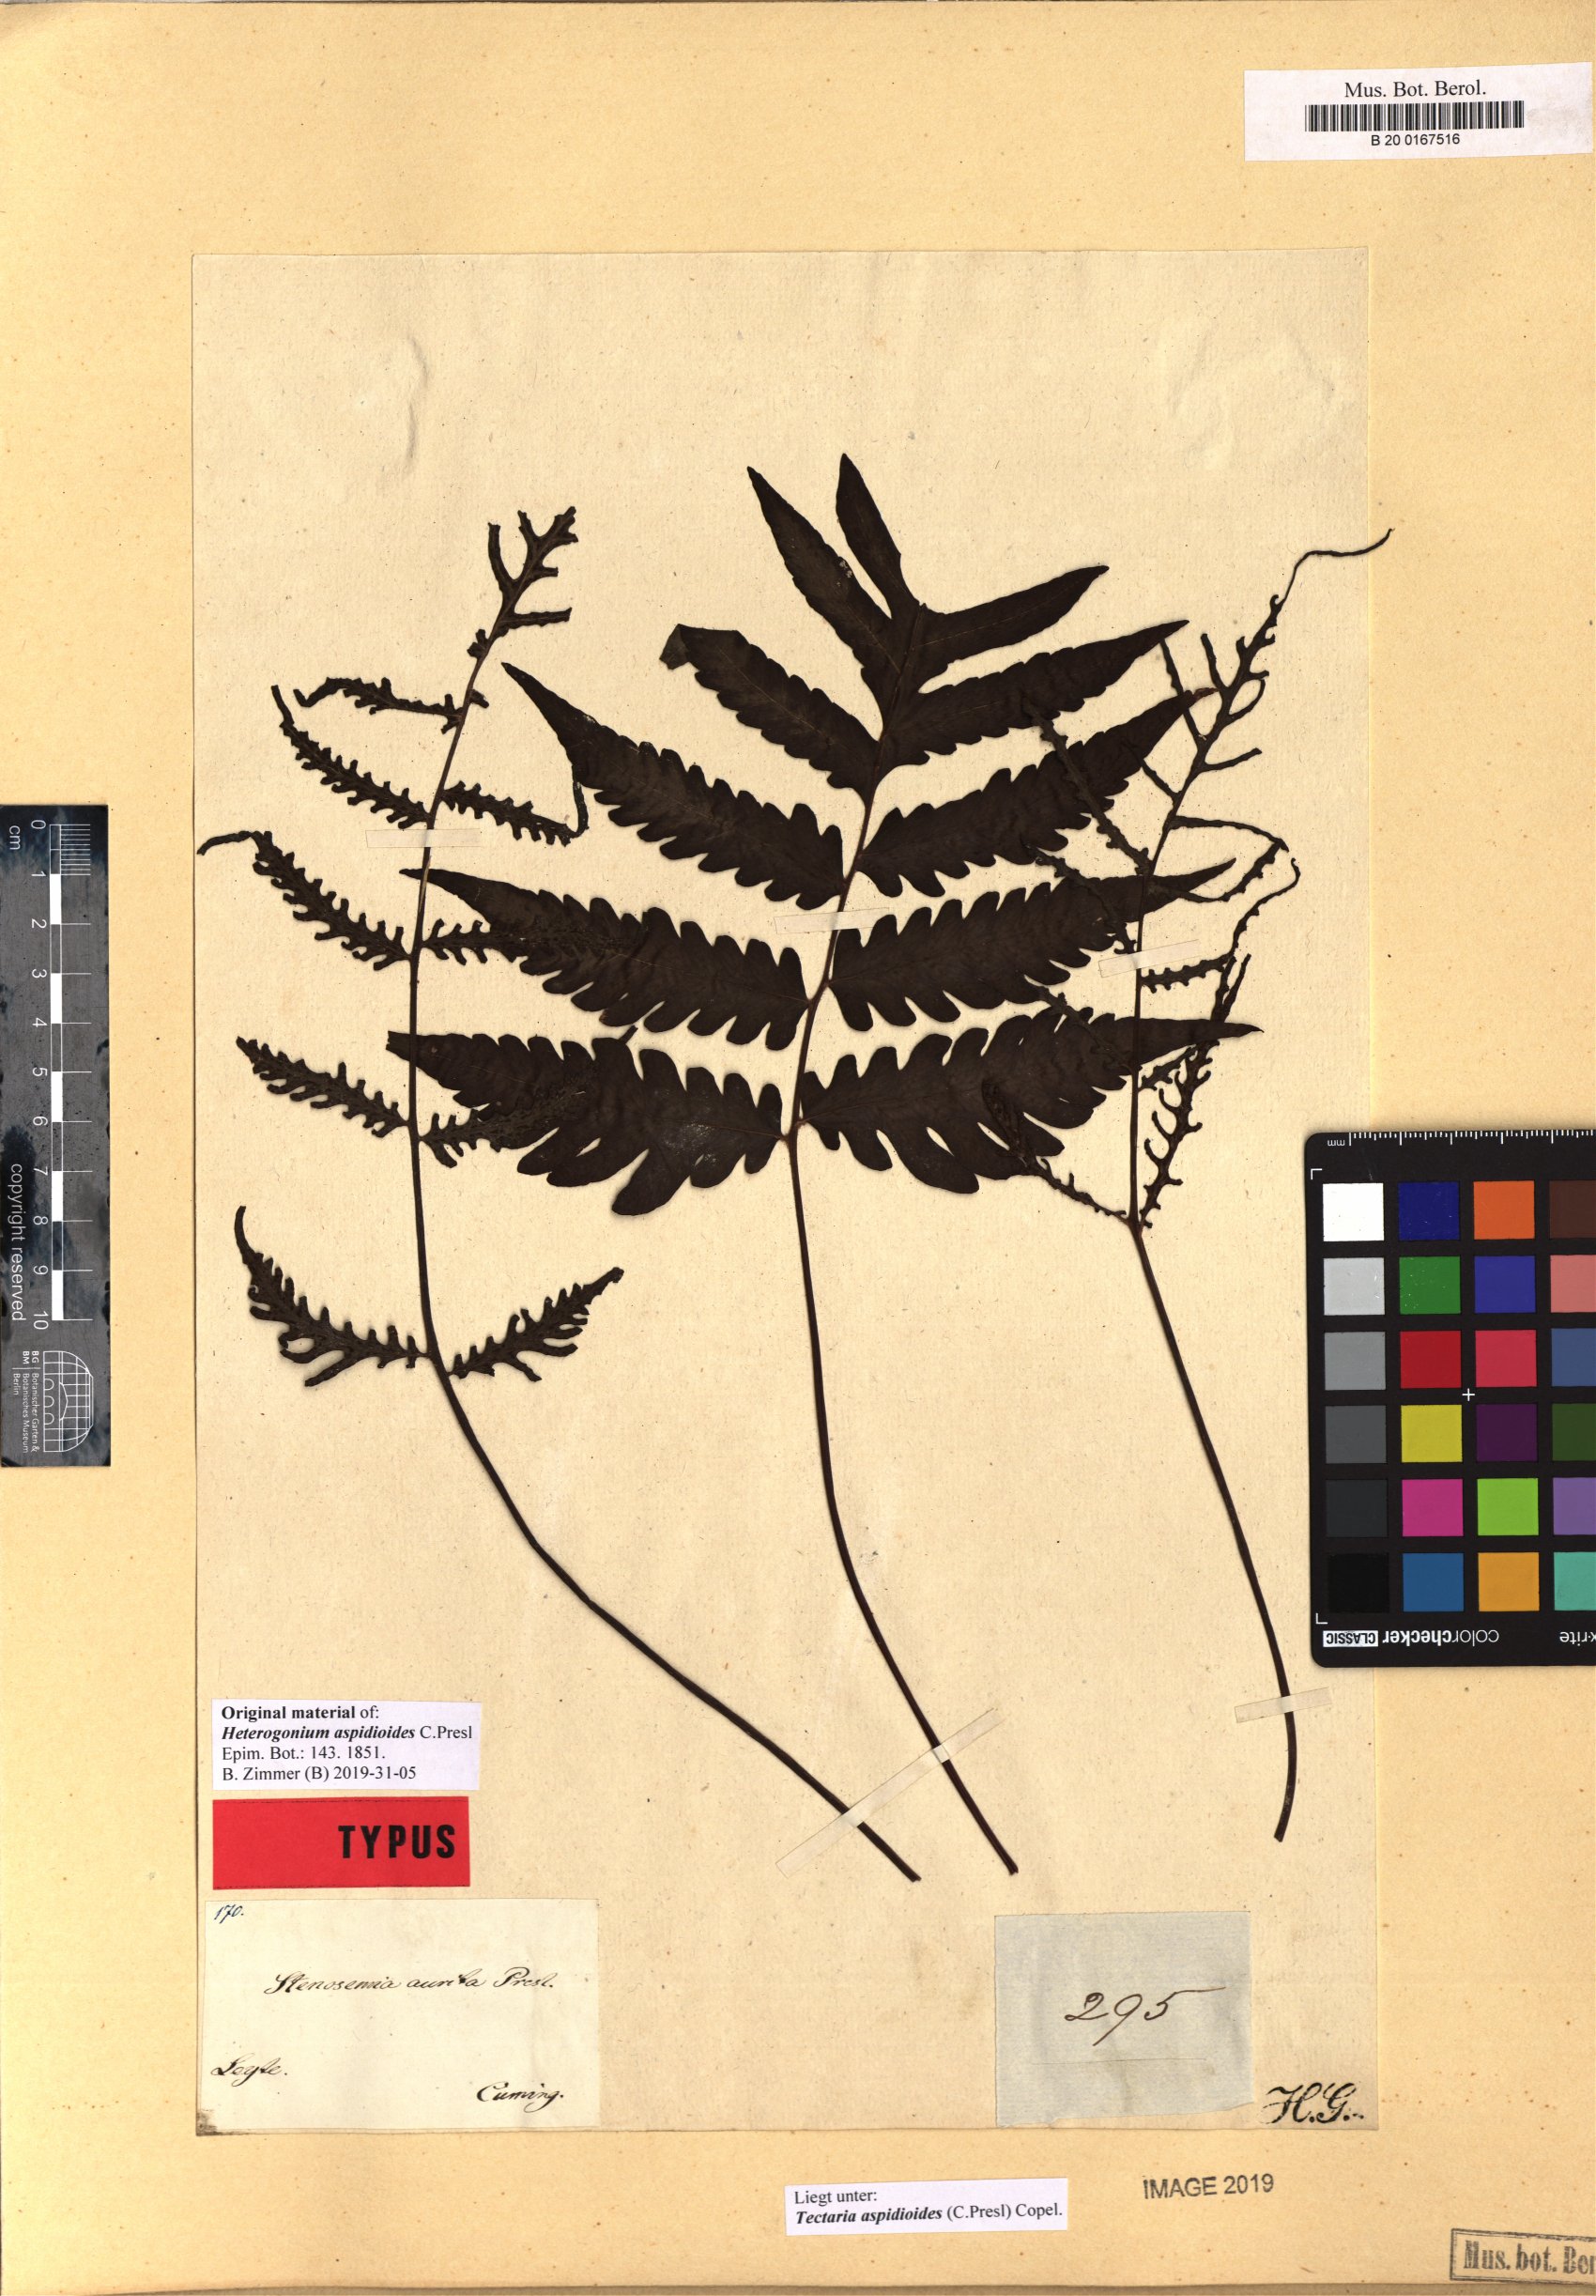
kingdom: Plantae
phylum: Tracheophyta
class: Polypodiopsida
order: Polypodiales
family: Tectariaceae
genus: Tectaria
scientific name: Tectaria aspidioides
